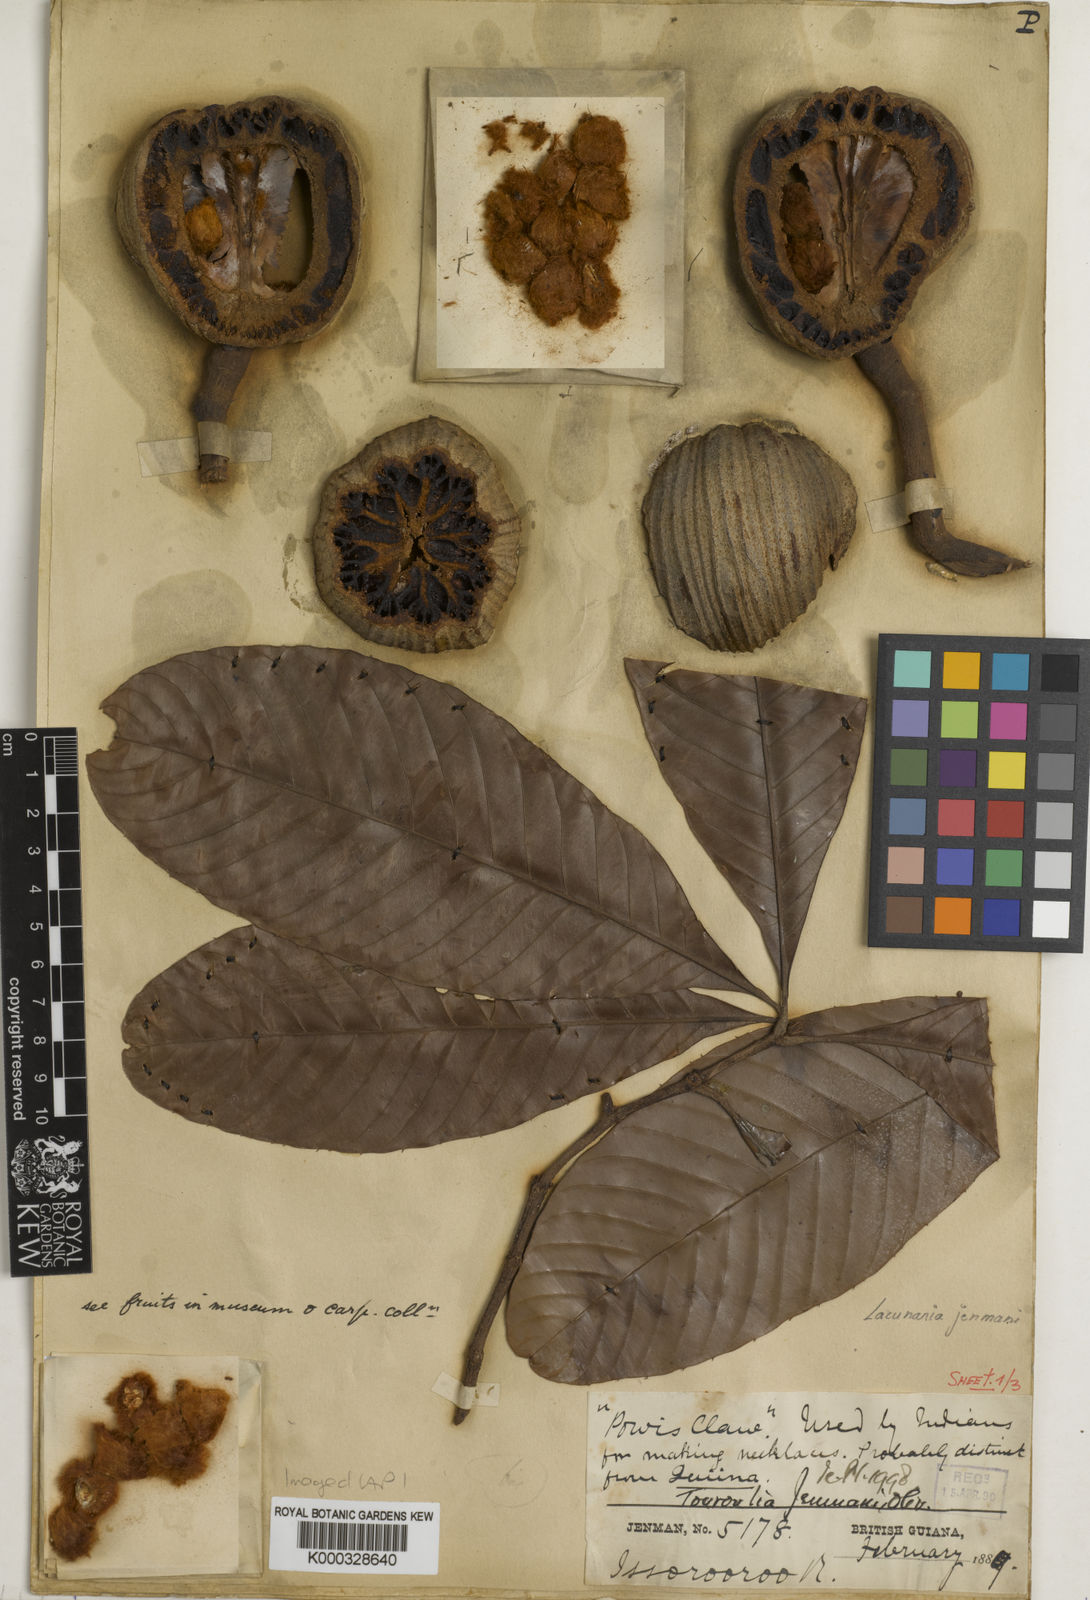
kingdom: Plantae
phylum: Tracheophyta
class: Magnoliopsida
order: Malpighiales
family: Quiinaceae
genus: Lacunaria
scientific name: Lacunaria jenmanii
